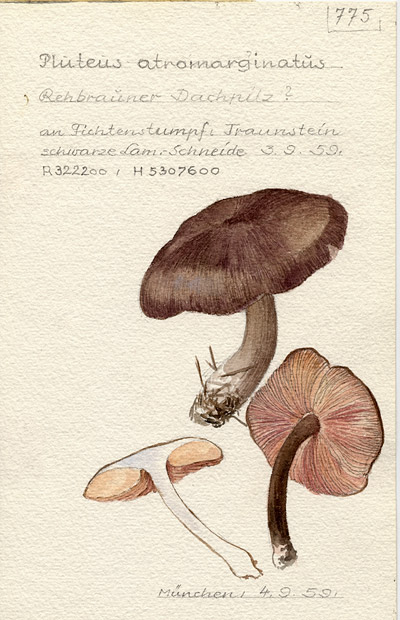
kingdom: Fungi
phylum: Basidiomycota
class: Agaricomycetes
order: Agaricales
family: Pluteaceae
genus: Pluteus
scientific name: Pluteus atromarginatus
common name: Blackedged shield
